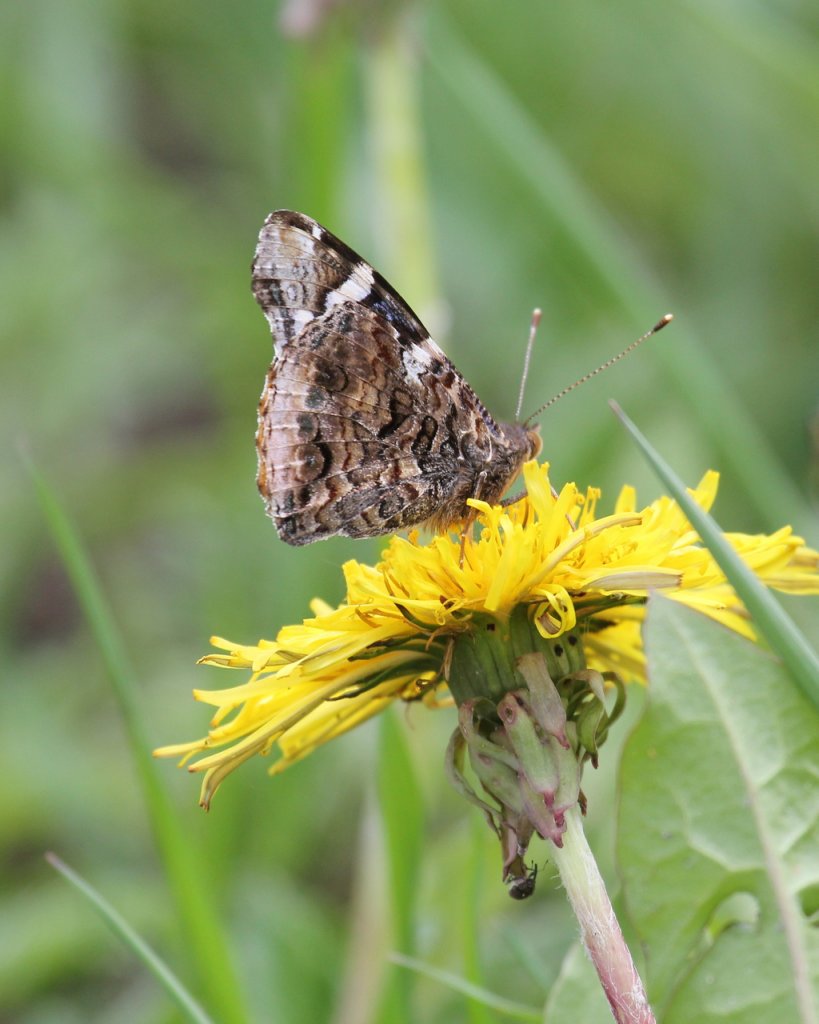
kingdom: Animalia
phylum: Arthropoda
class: Insecta
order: Lepidoptera
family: Nymphalidae
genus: Vanessa
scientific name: Vanessa atalanta
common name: Red Admiral
